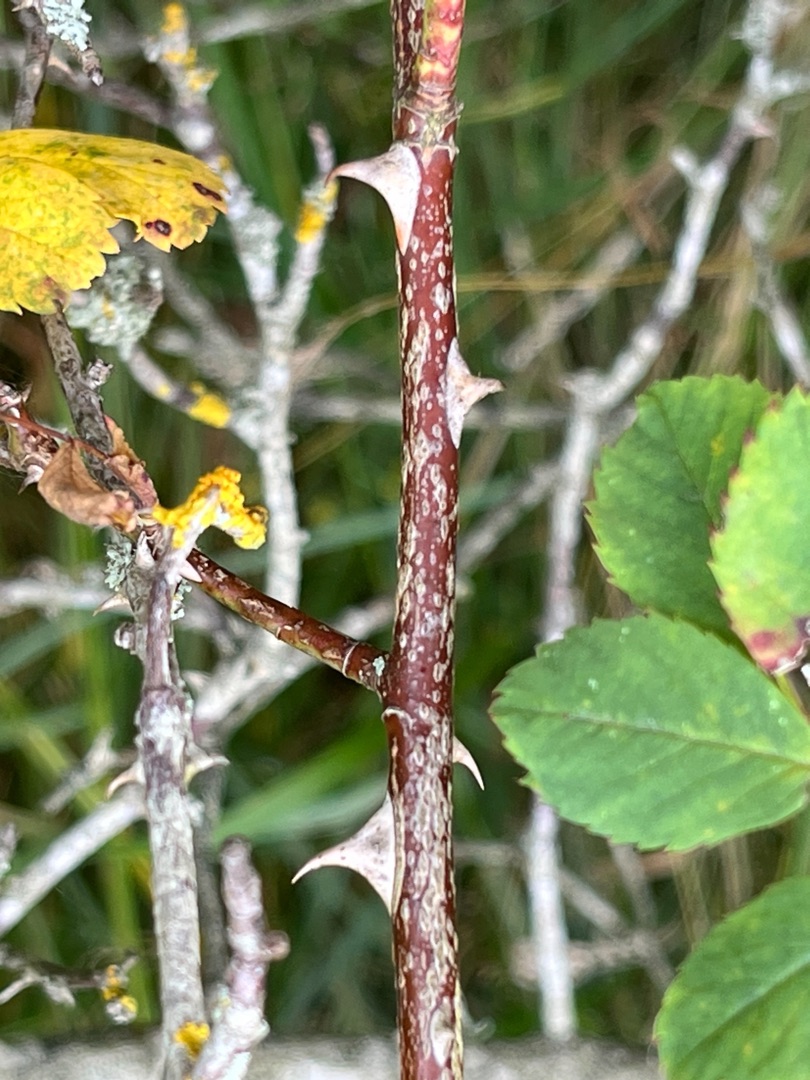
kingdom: Plantae
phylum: Tracheophyta
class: Magnoliopsida
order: Rosales
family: Rosaceae
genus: Rosa
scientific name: Rosa dumalis
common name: Blågrøn rose (underart)
